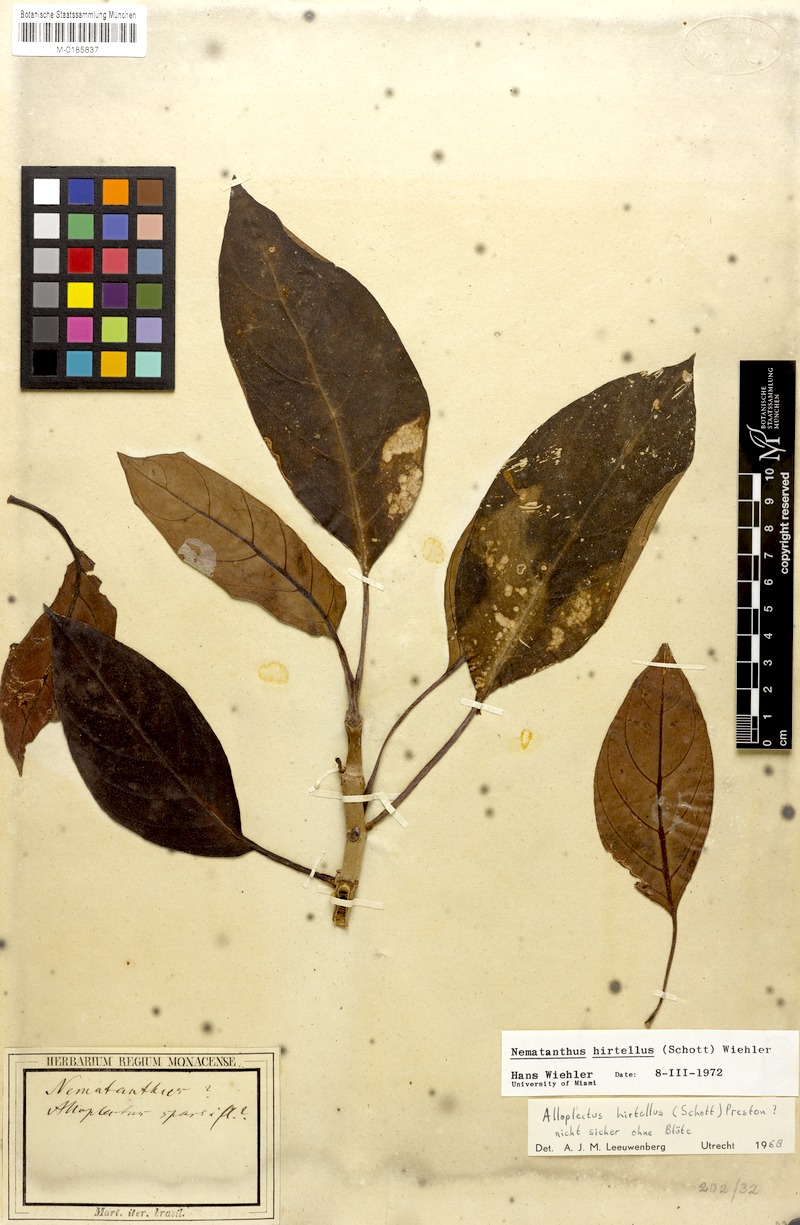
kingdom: Plantae
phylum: Tracheophyta
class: Magnoliopsida
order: Lamiales
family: Gesneriaceae
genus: Nematanthus
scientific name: Nematanthus hirtellus
